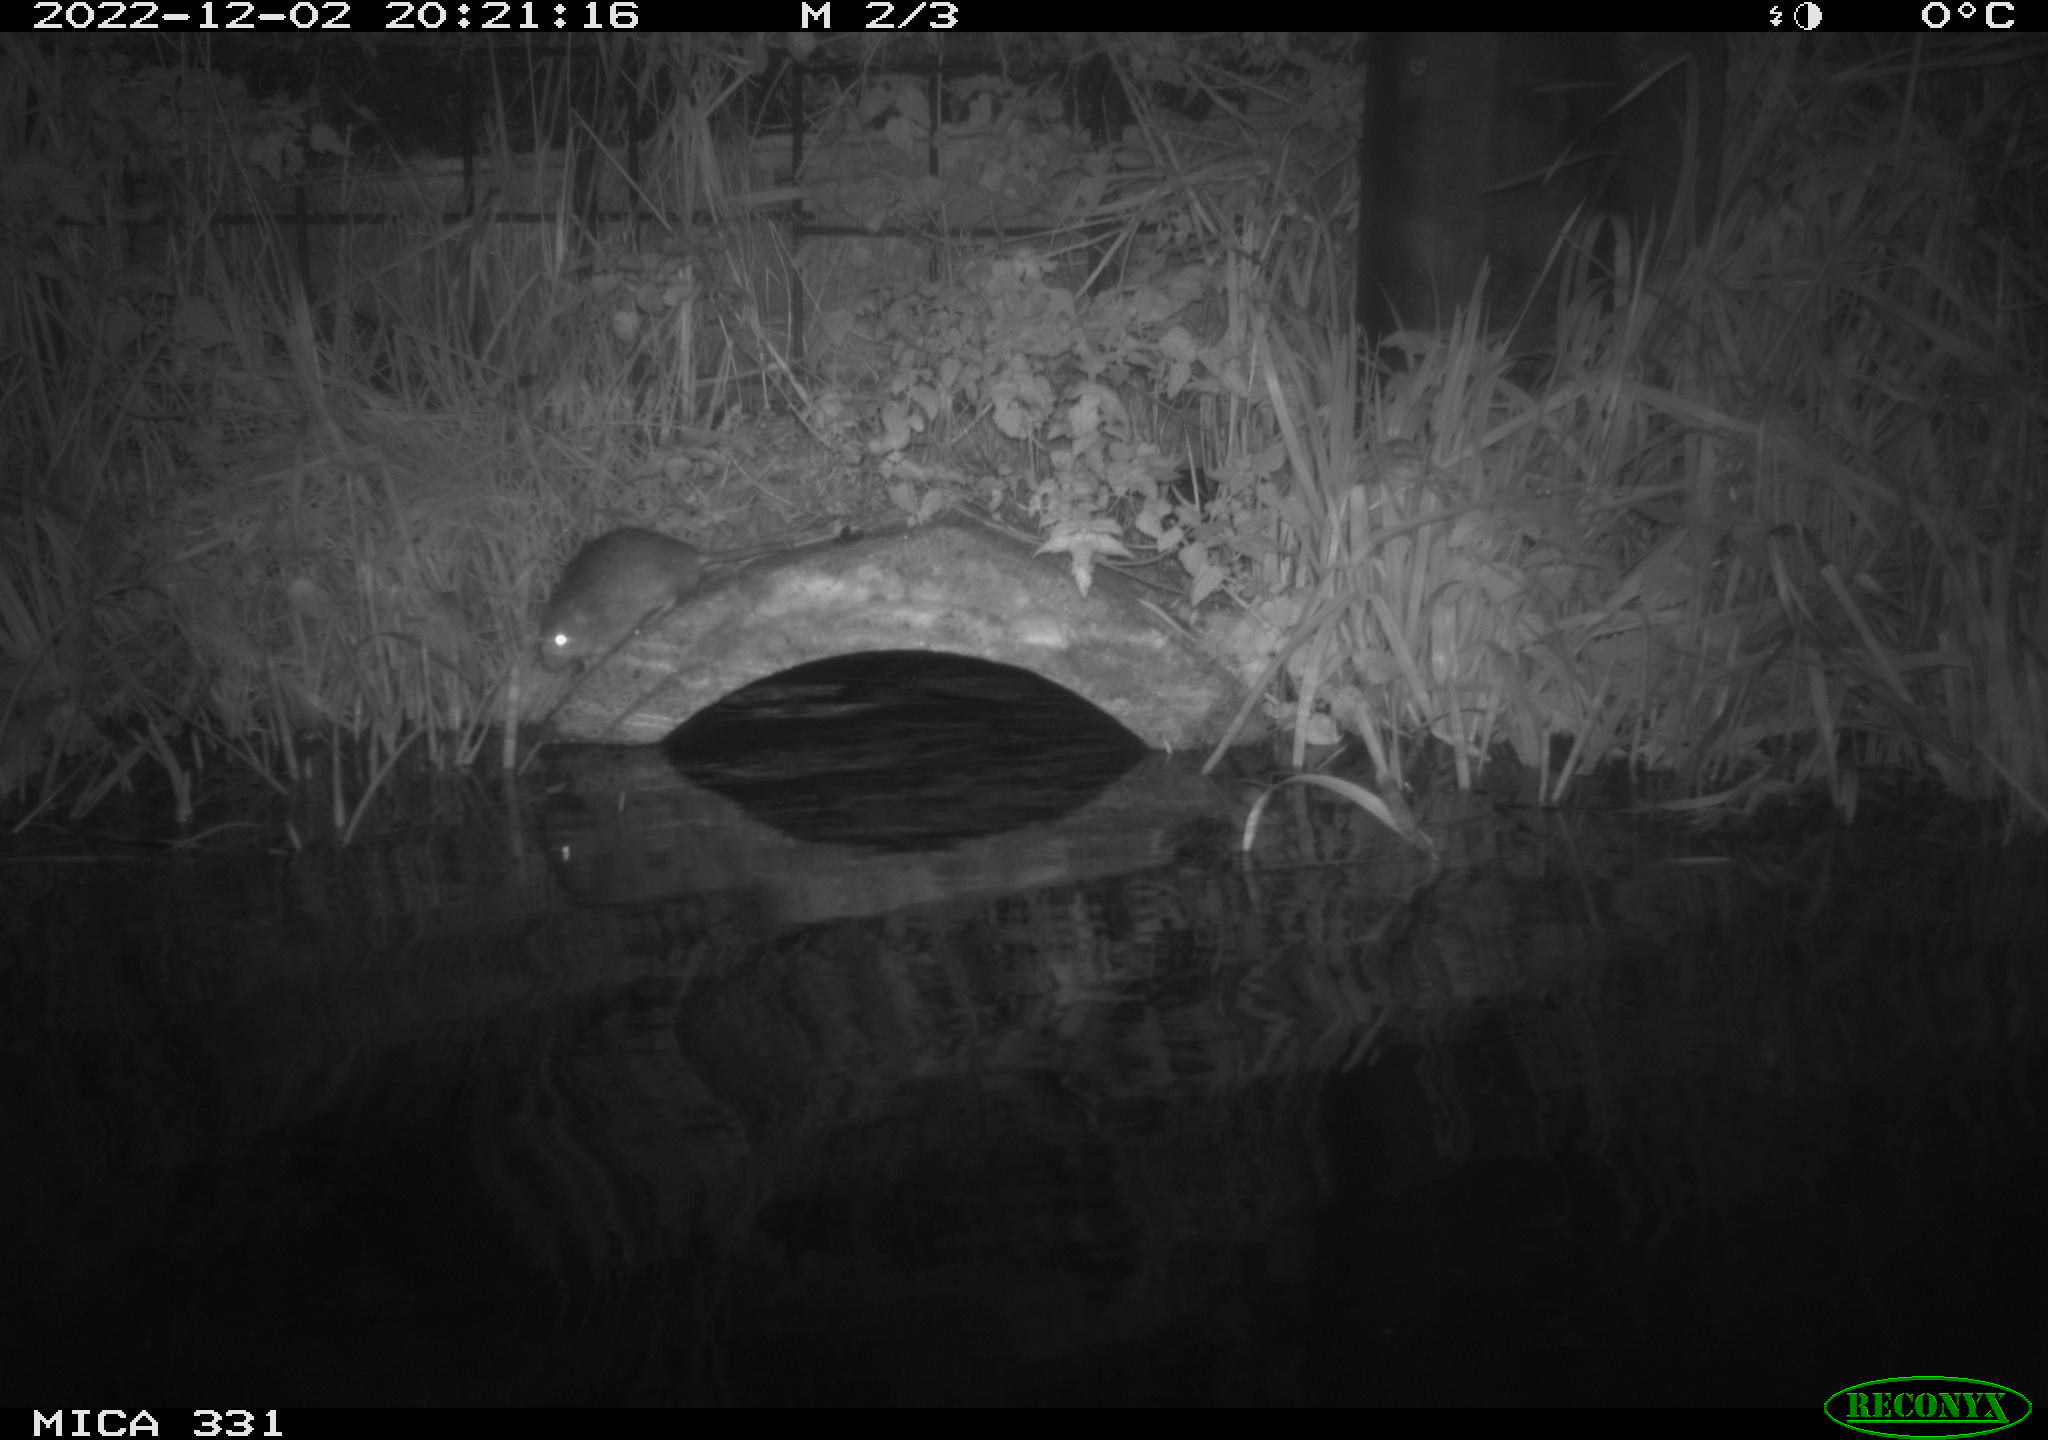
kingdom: Animalia
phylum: Chordata
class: Mammalia
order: Rodentia
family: Muridae
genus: Rattus
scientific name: Rattus norvegicus
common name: Brown rat
